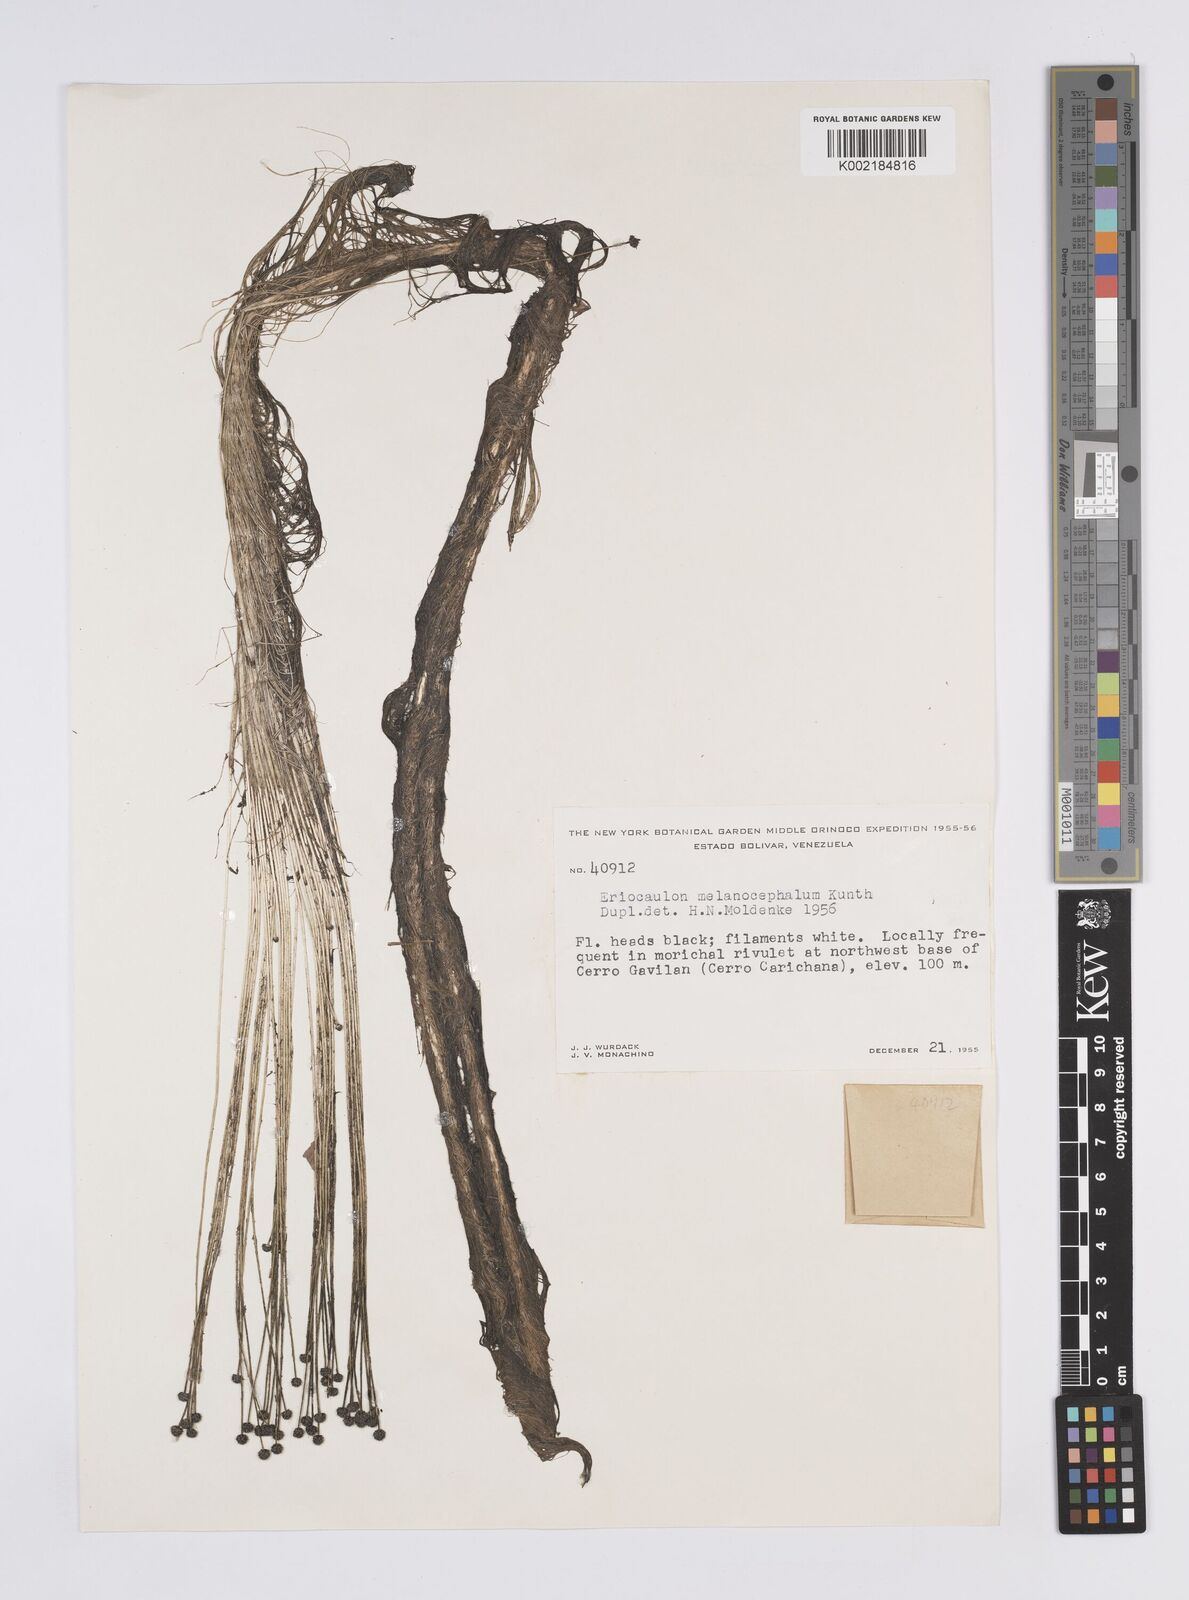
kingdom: Plantae
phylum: Tracheophyta
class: Liliopsida
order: Poales
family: Eriocaulaceae
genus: Eriocaulon
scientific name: Eriocaulon setaceum
